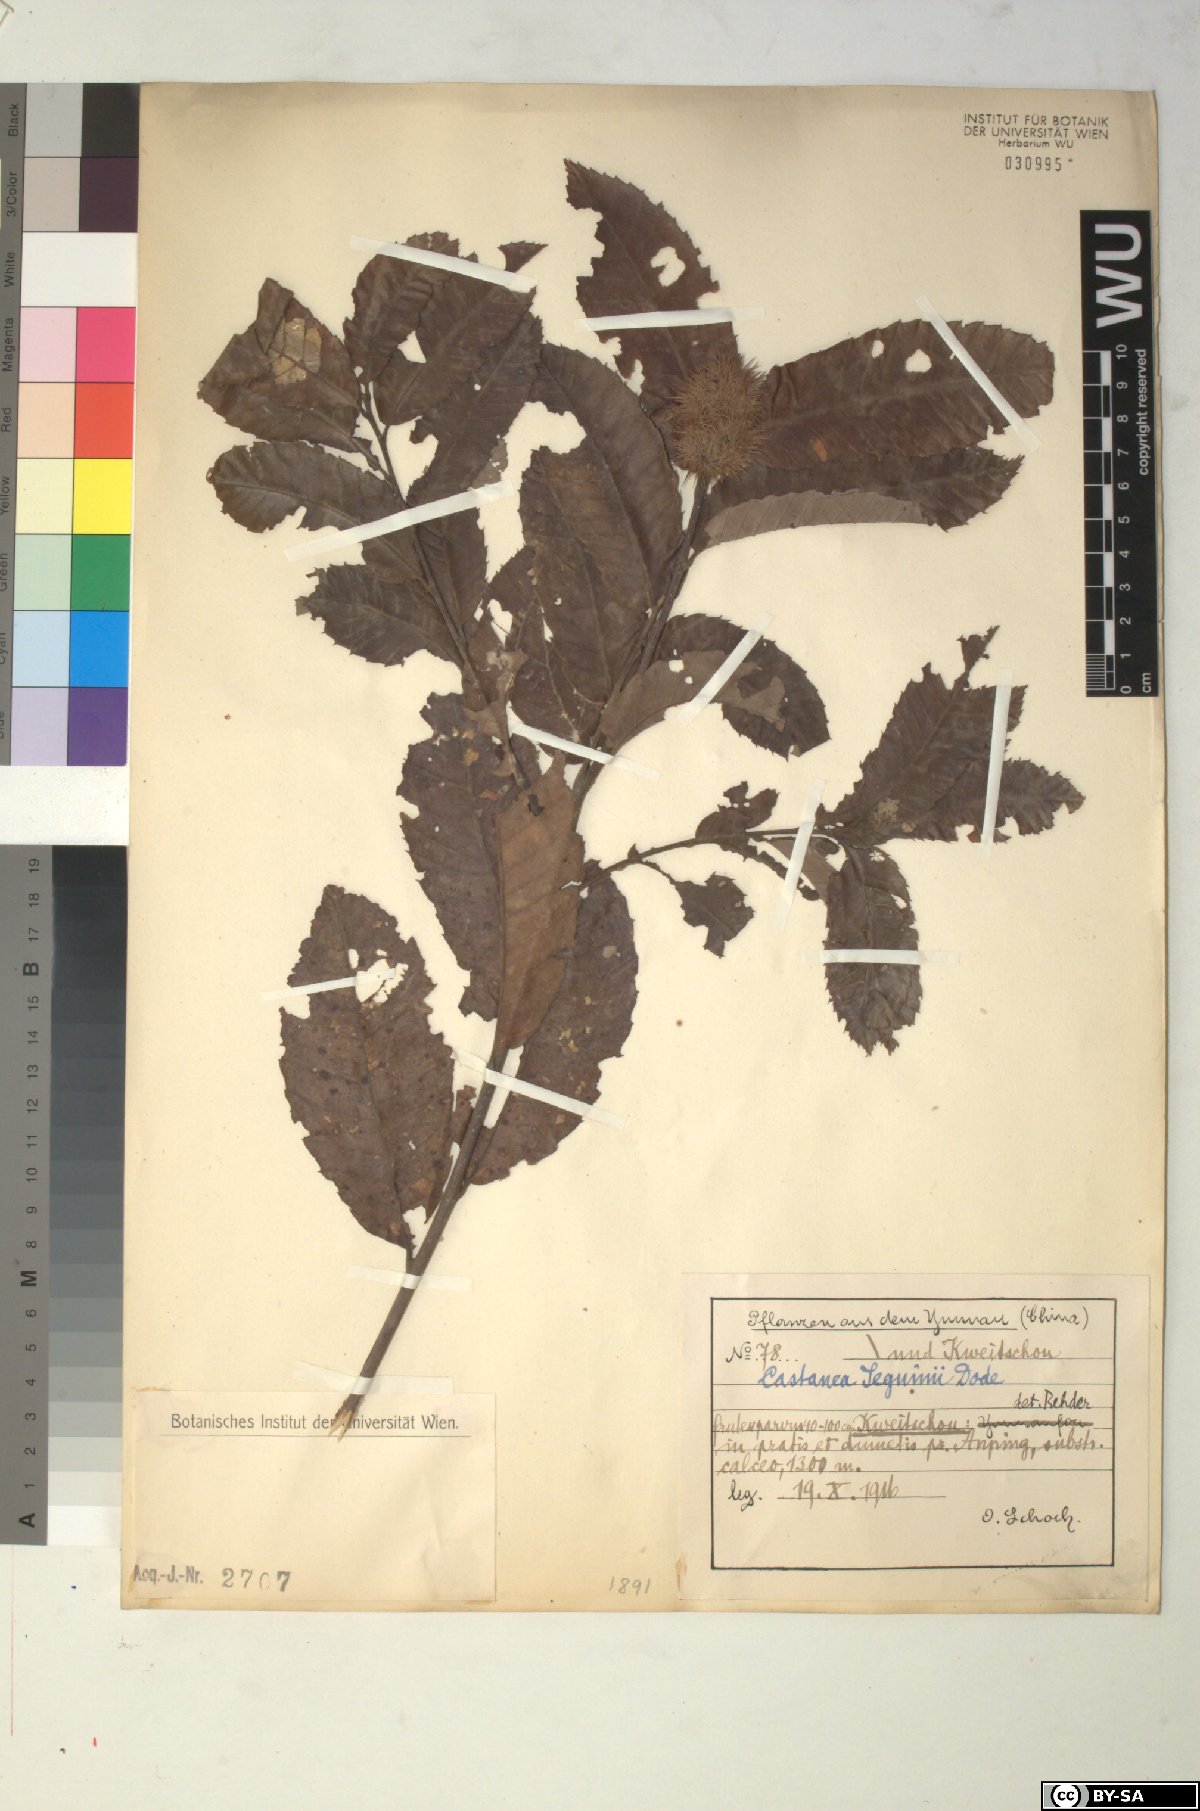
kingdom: Plantae
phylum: Tracheophyta
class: Magnoliopsida
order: Fagales
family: Fagaceae
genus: Castanea
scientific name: Castanea seguinii
